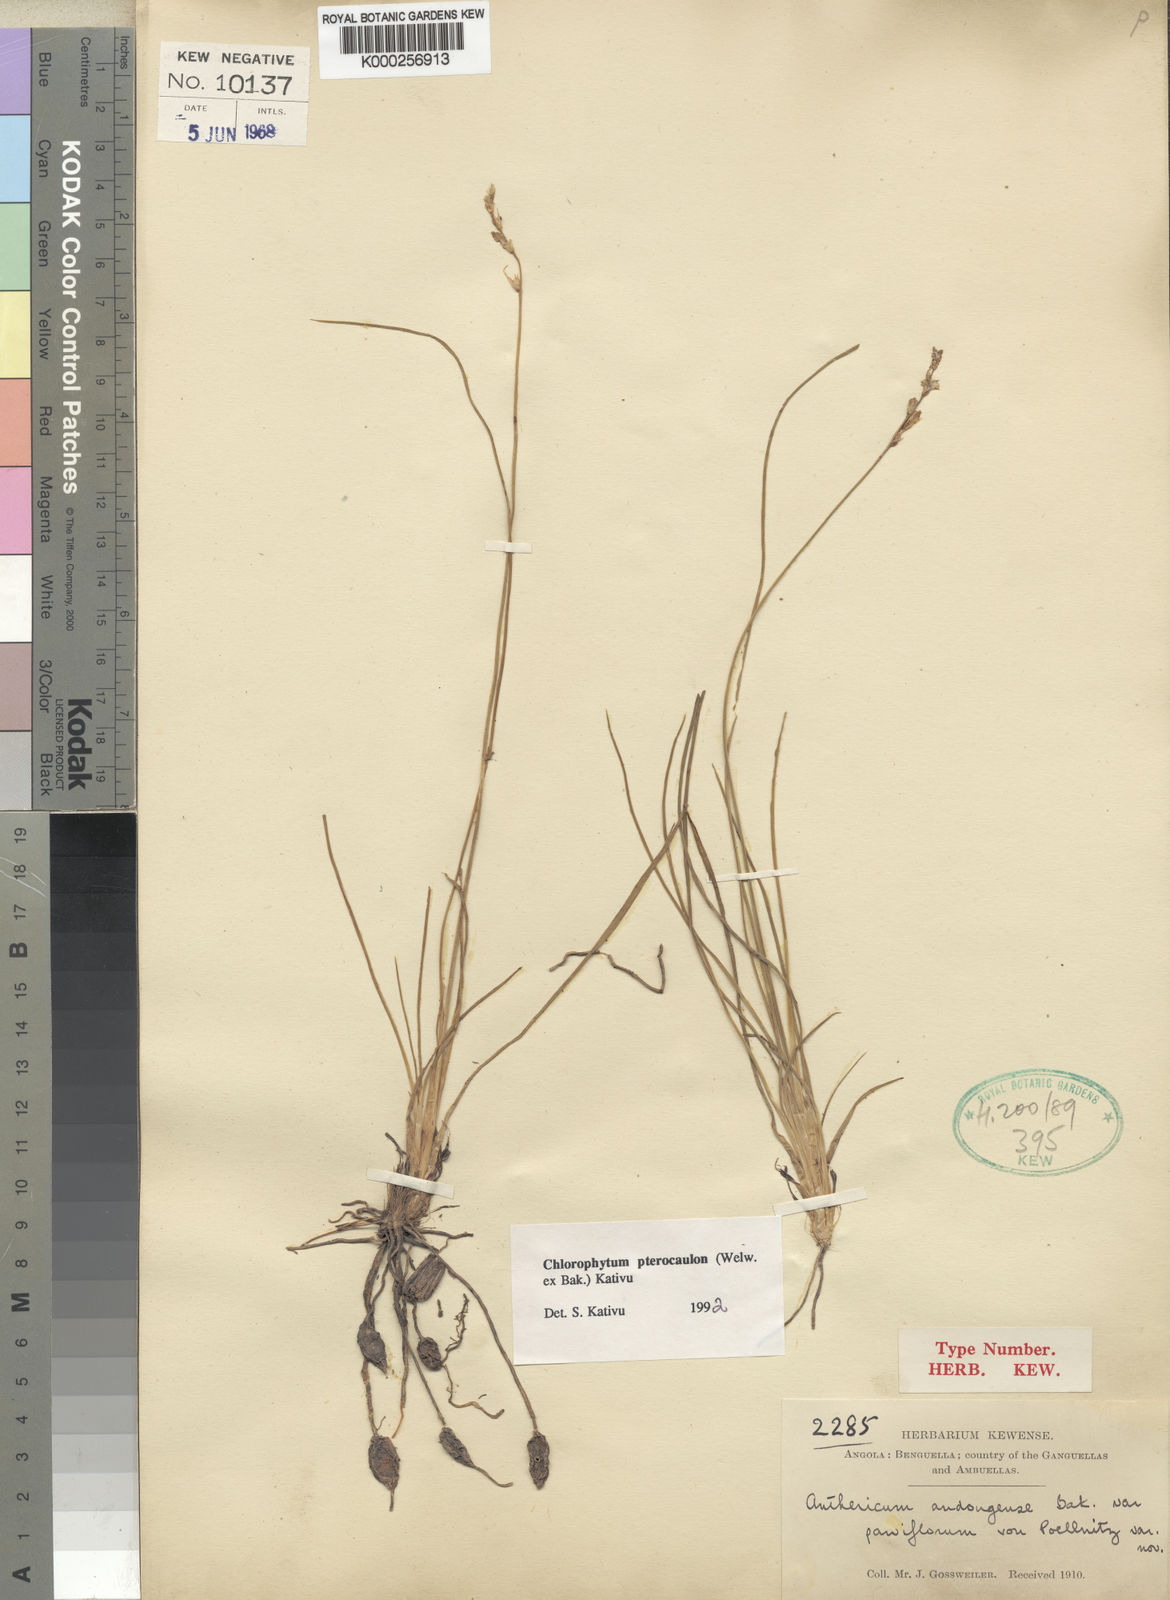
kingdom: Plantae
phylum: Tracheophyta
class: Liliopsida
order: Asparagales
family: Asparagaceae
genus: Chlorophytum
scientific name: Chlorophytum sphagnicola
